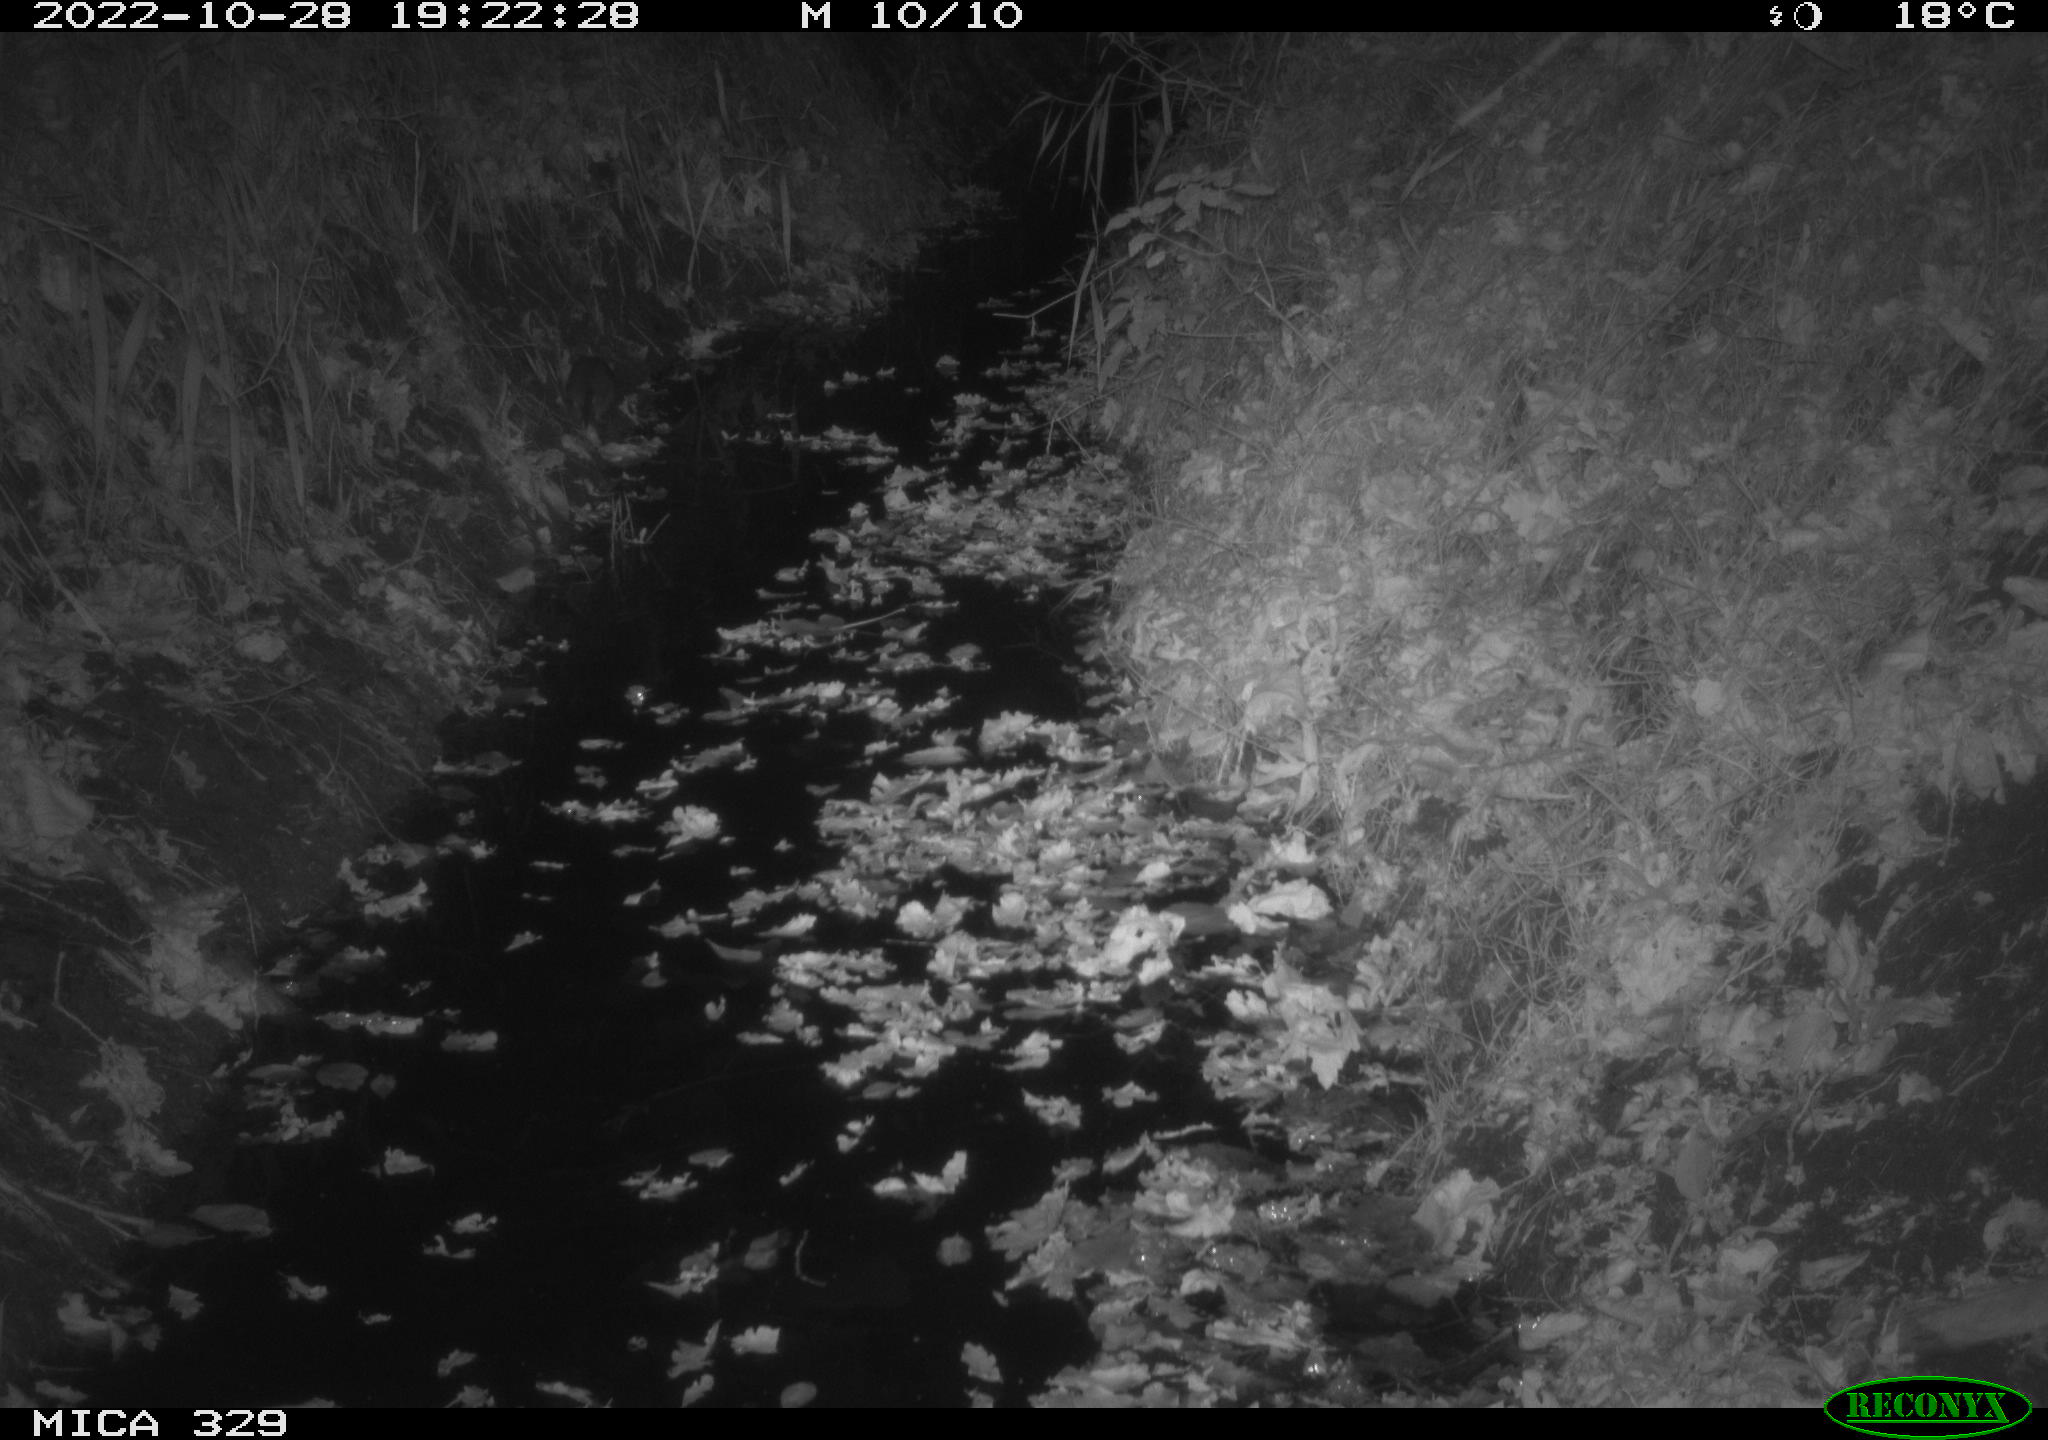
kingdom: Animalia
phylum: Chordata
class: Mammalia
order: Rodentia
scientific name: Rodentia
